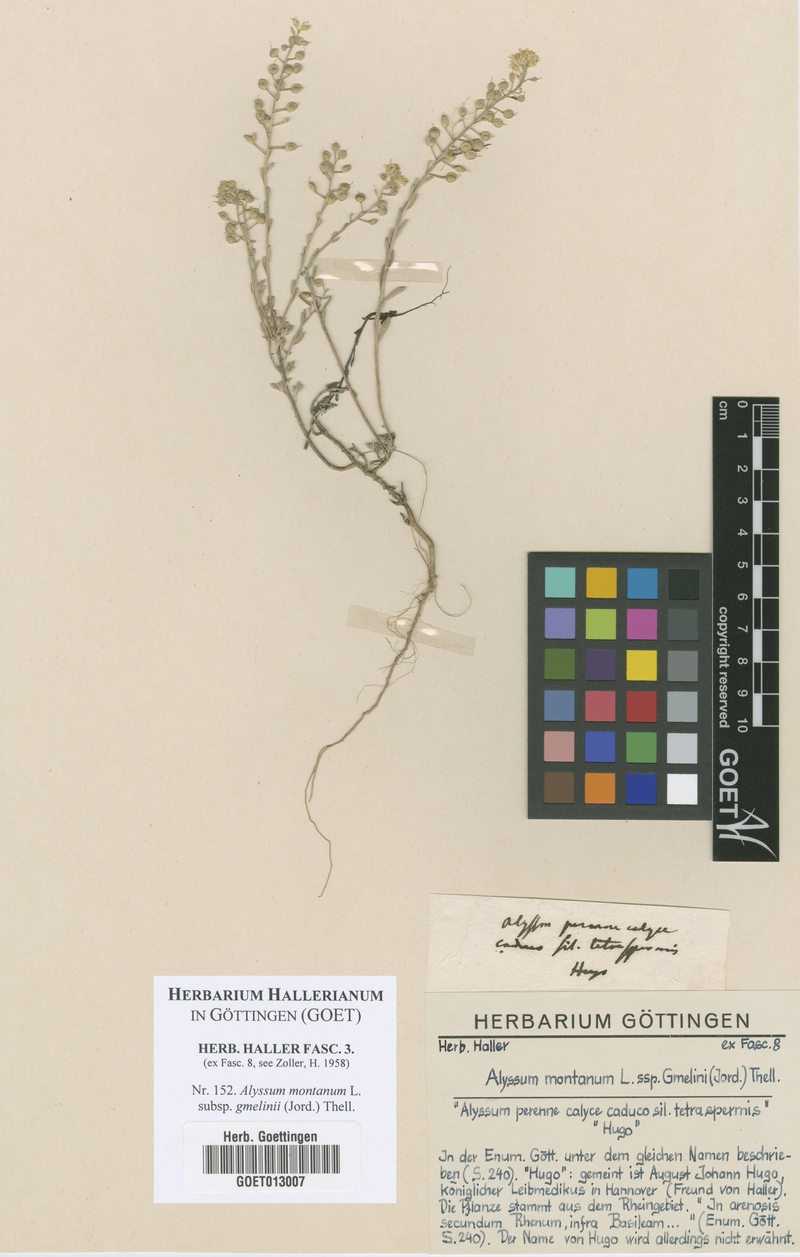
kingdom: Plantae
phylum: Tracheophyta
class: Magnoliopsida
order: Brassicales
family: Brassicaceae
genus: Alyssum
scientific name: Alyssum gmelinii
